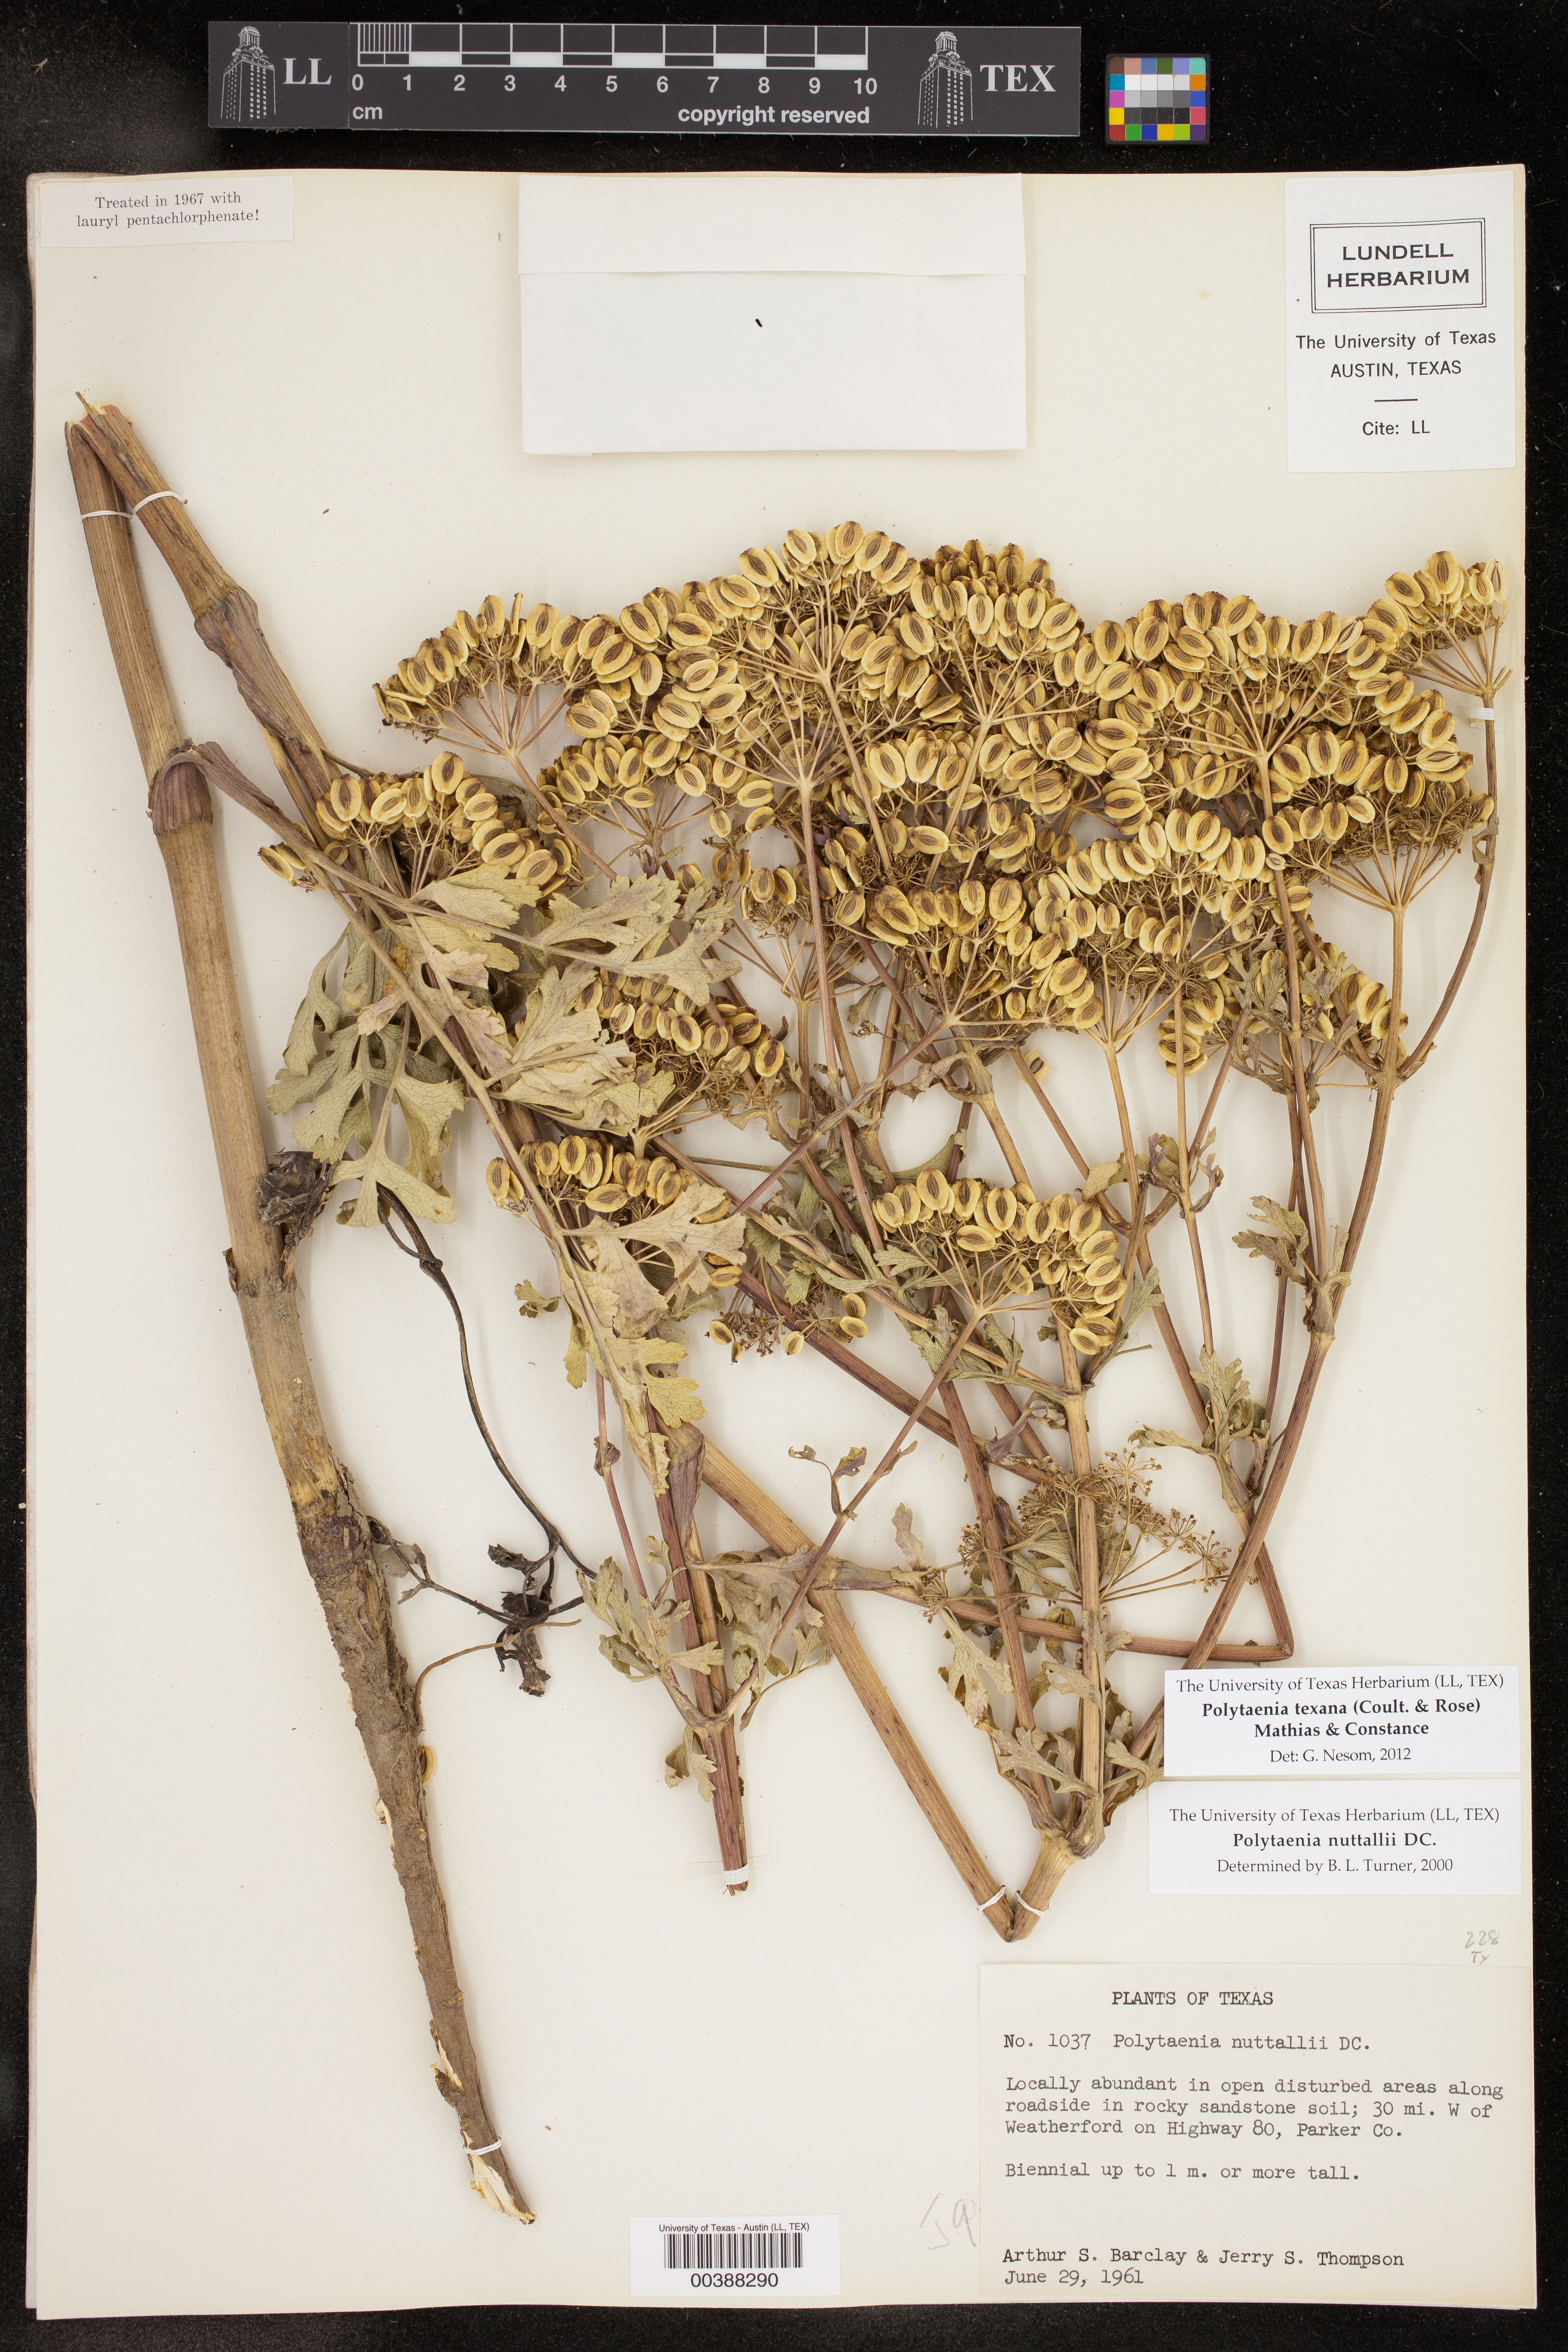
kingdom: Plantae
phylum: Tracheophyta
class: Magnoliopsida
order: Apiales
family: Apiaceae
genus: Polytaenia
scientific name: Polytaenia texana
